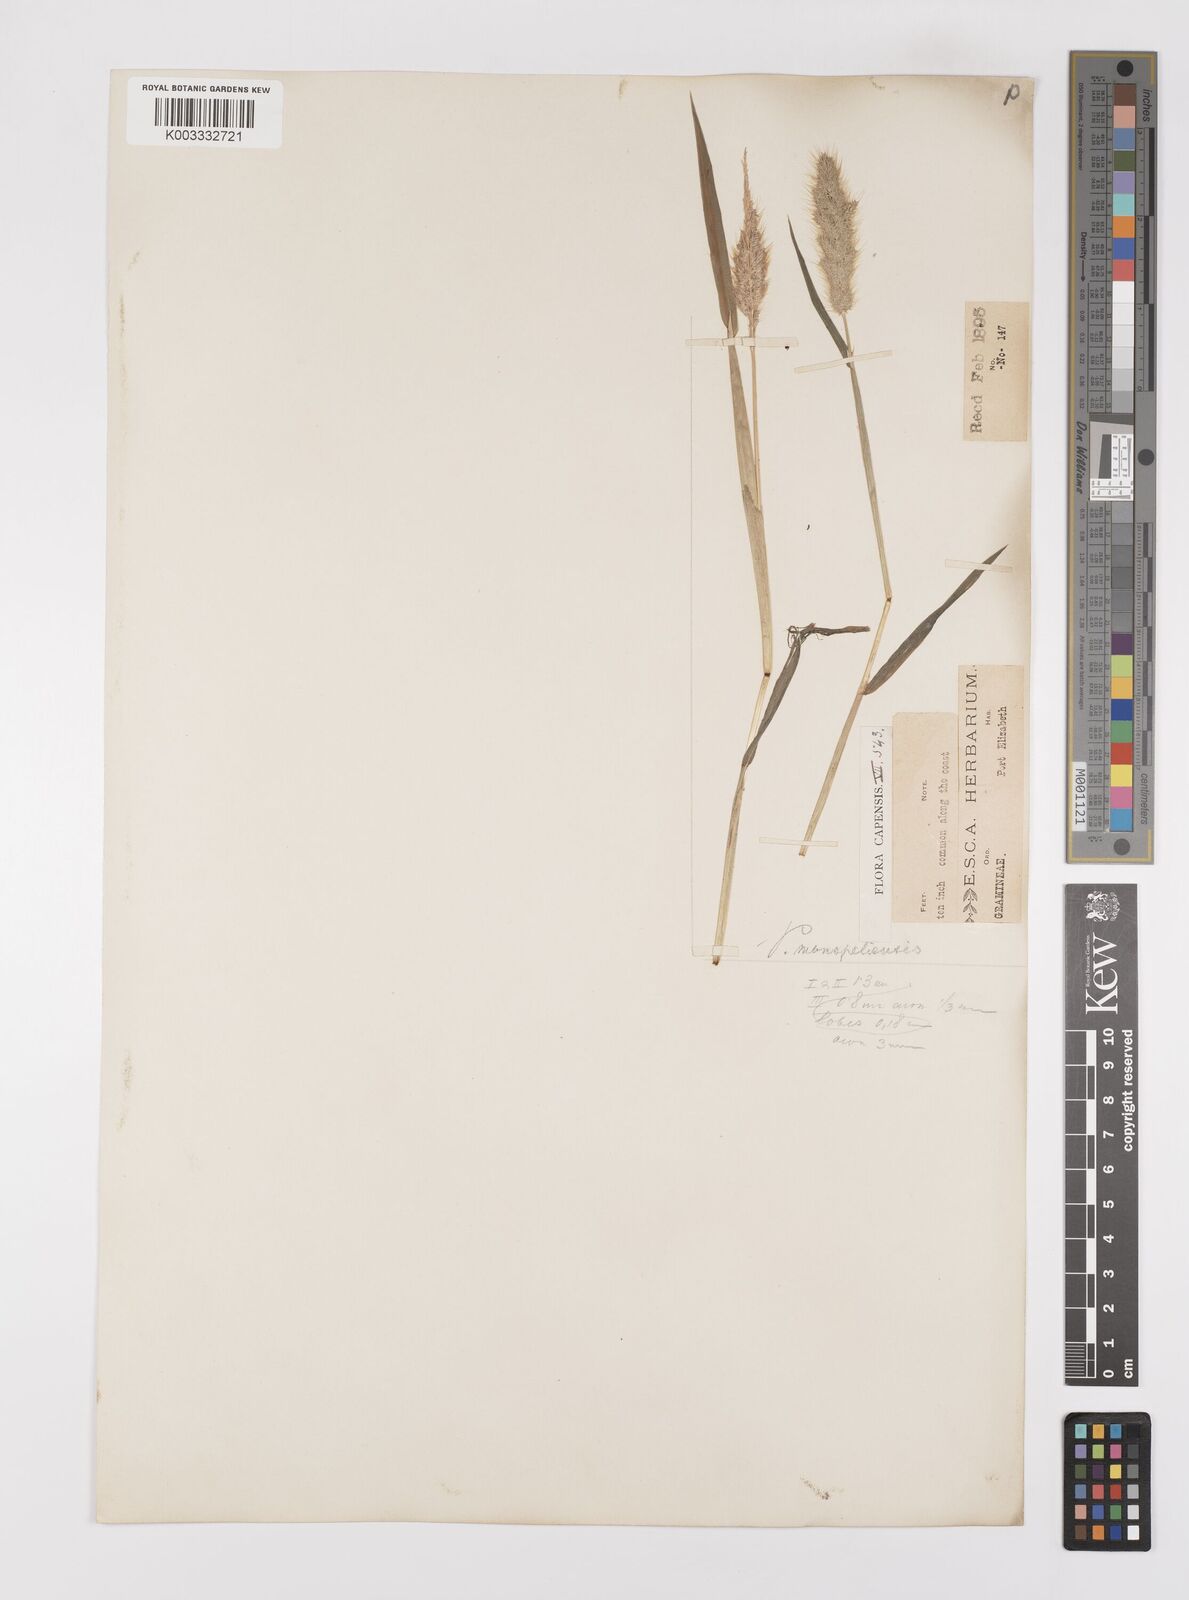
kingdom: Plantae
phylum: Tracheophyta
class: Liliopsida
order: Poales
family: Poaceae
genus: Polypogon
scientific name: Polypogon monspeliensis
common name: Annual rabbitsfoot grass
